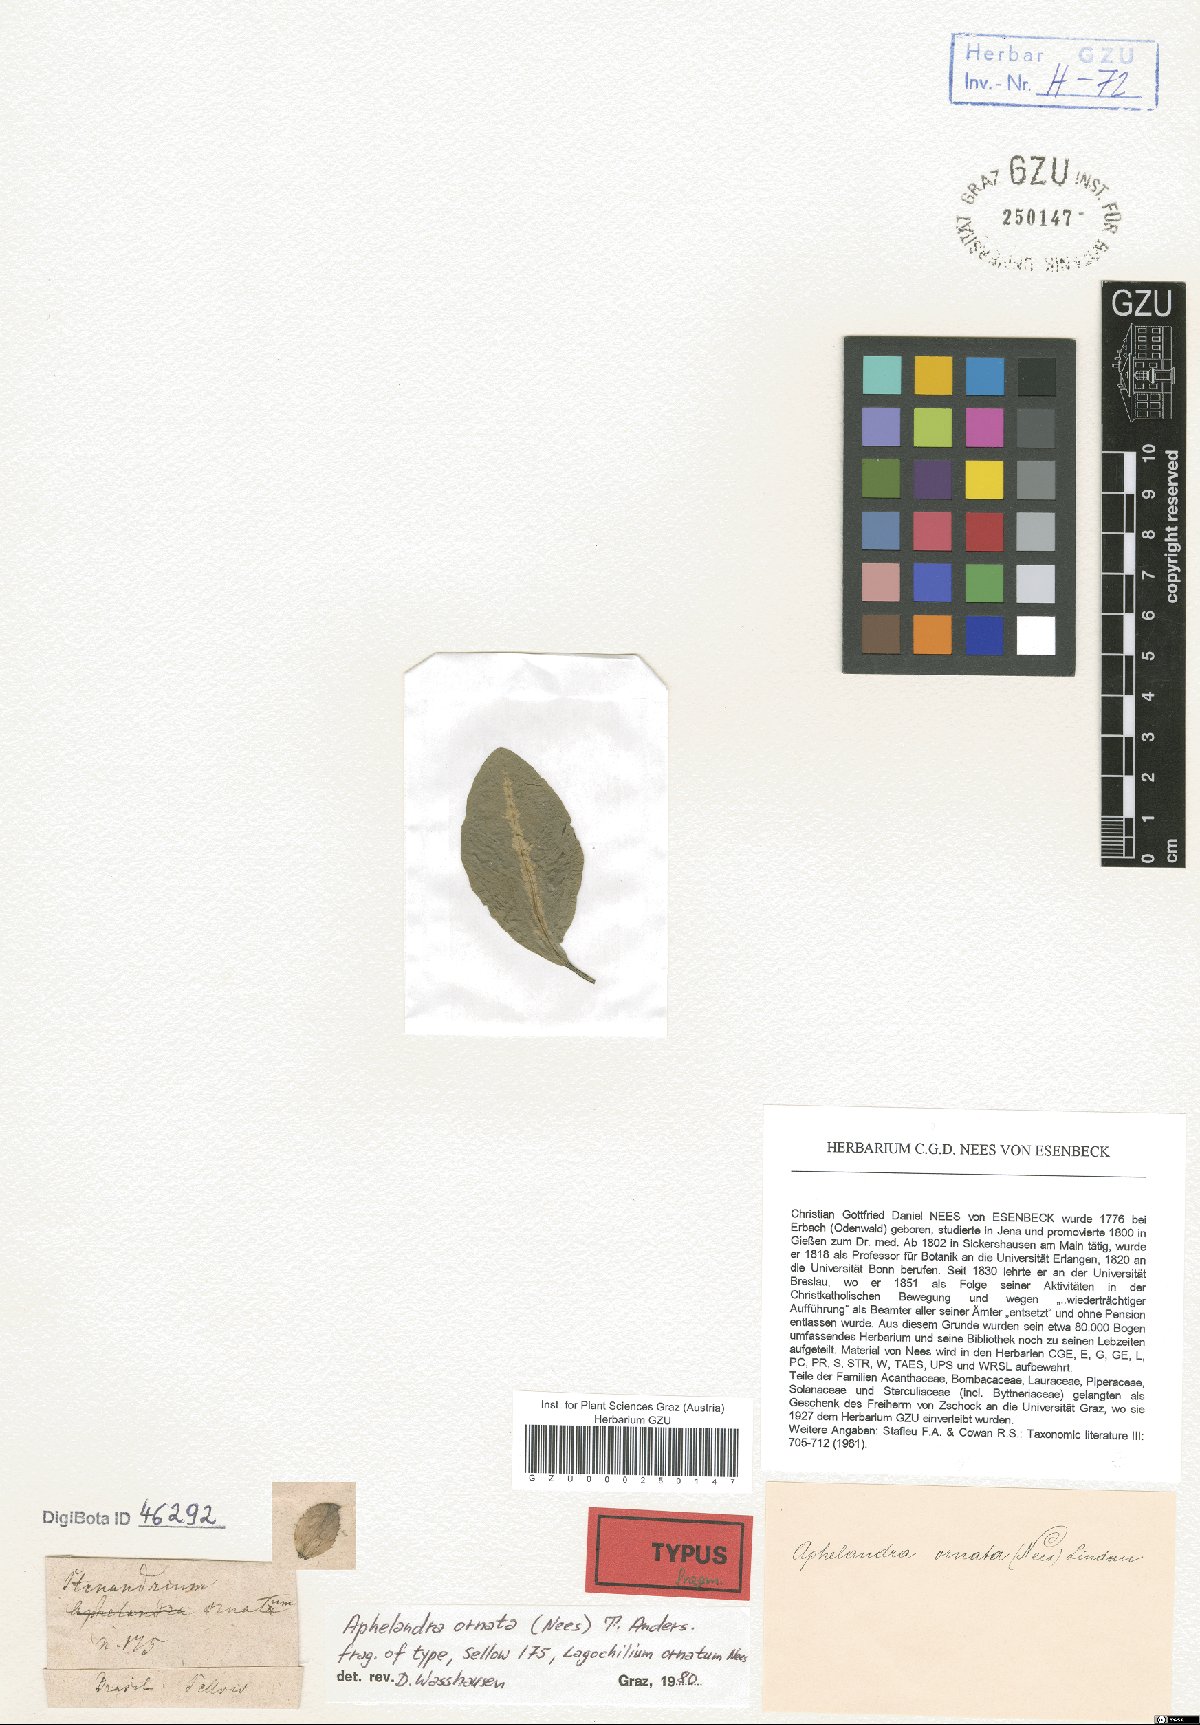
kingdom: Plantae
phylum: Tracheophyta
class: Magnoliopsida
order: Lamiales
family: Acanthaceae
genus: Aphelandra
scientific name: Aphelandra ornata
